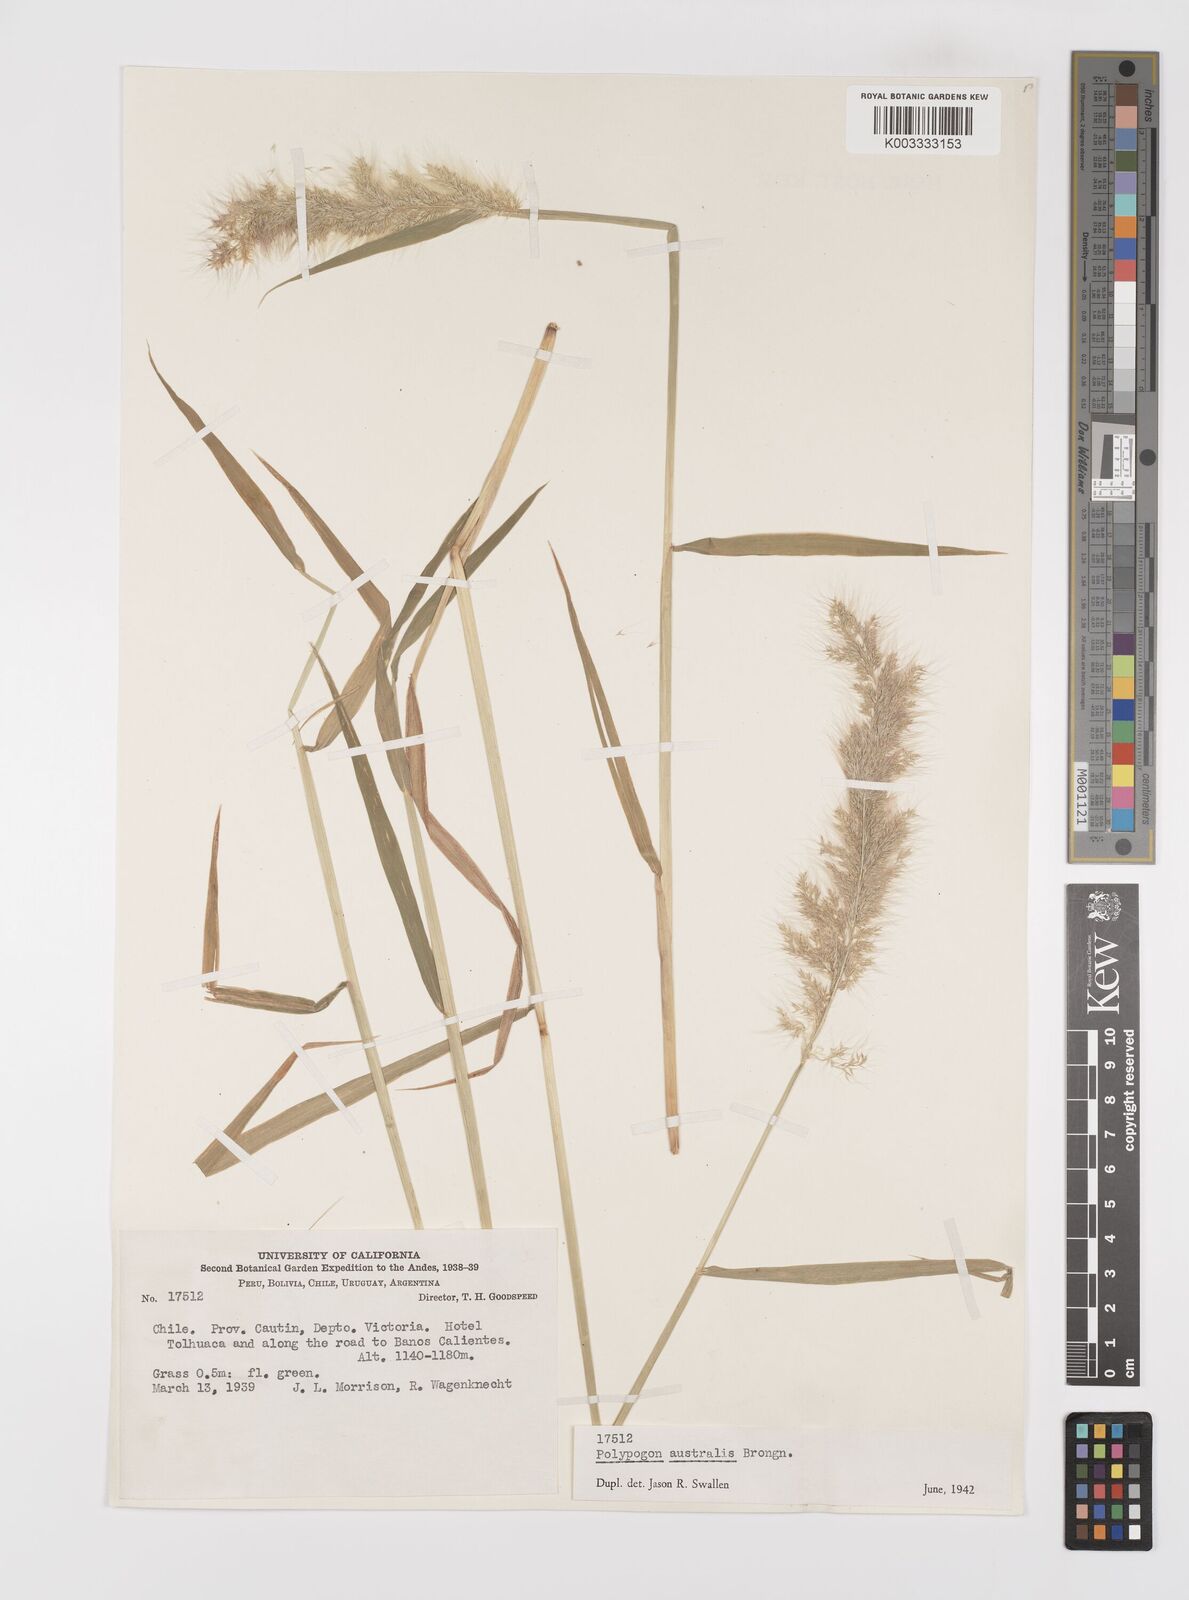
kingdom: Plantae
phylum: Tracheophyta
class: Liliopsida
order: Poales
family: Poaceae
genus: Polypogon
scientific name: Polypogon australis
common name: Chilean rabbitsfoot grass
